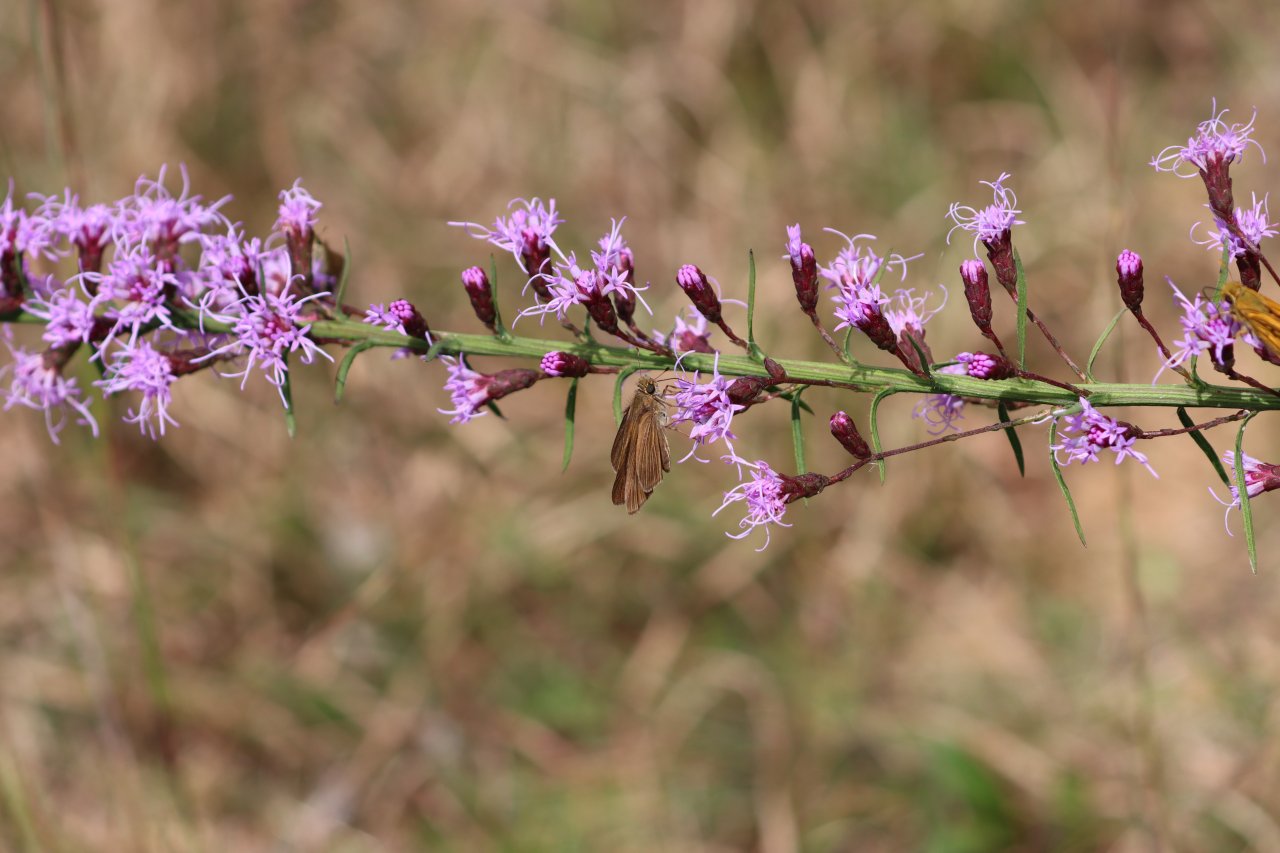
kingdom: Animalia
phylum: Arthropoda
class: Insecta
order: Lepidoptera
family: Hesperiidae
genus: Panoquina
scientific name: Panoquina ocola
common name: Ocola Skipper
